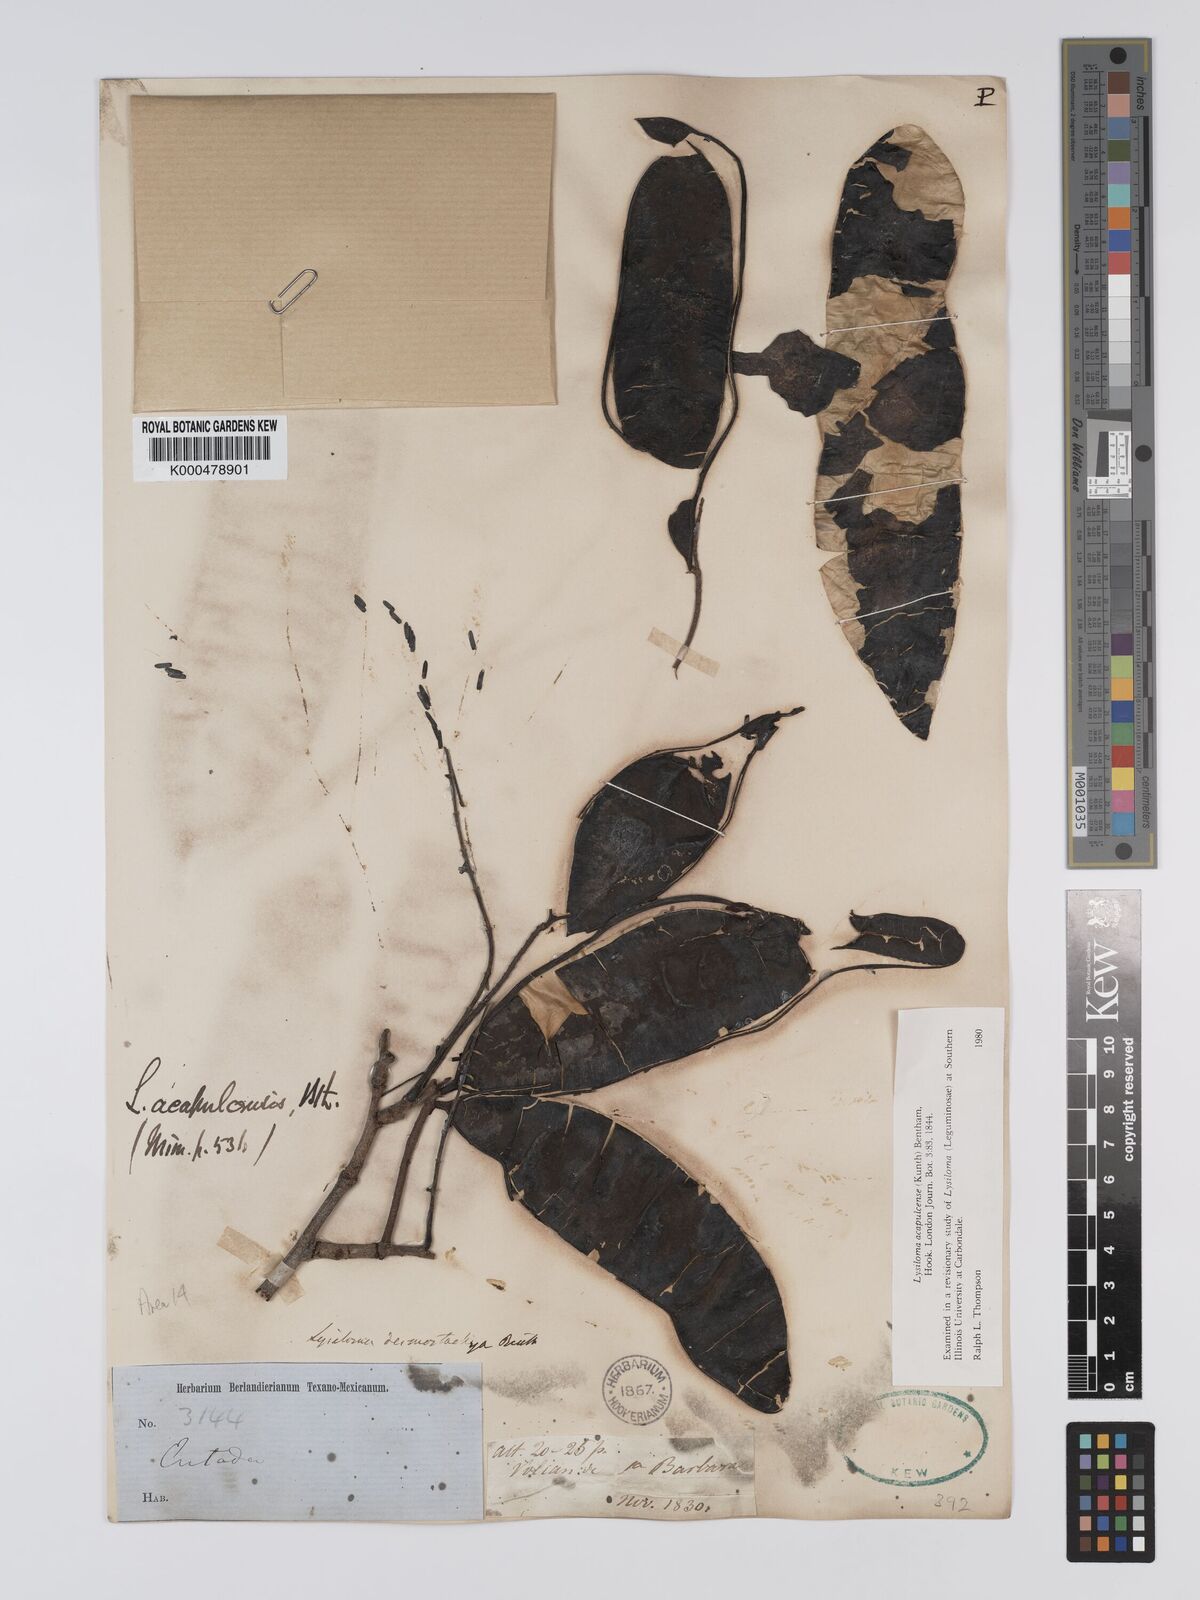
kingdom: Plantae
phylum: Tracheophyta
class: Magnoliopsida
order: Fabales
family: Fabaceae
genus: Lysiloma
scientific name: Lysiloma acapulcense
